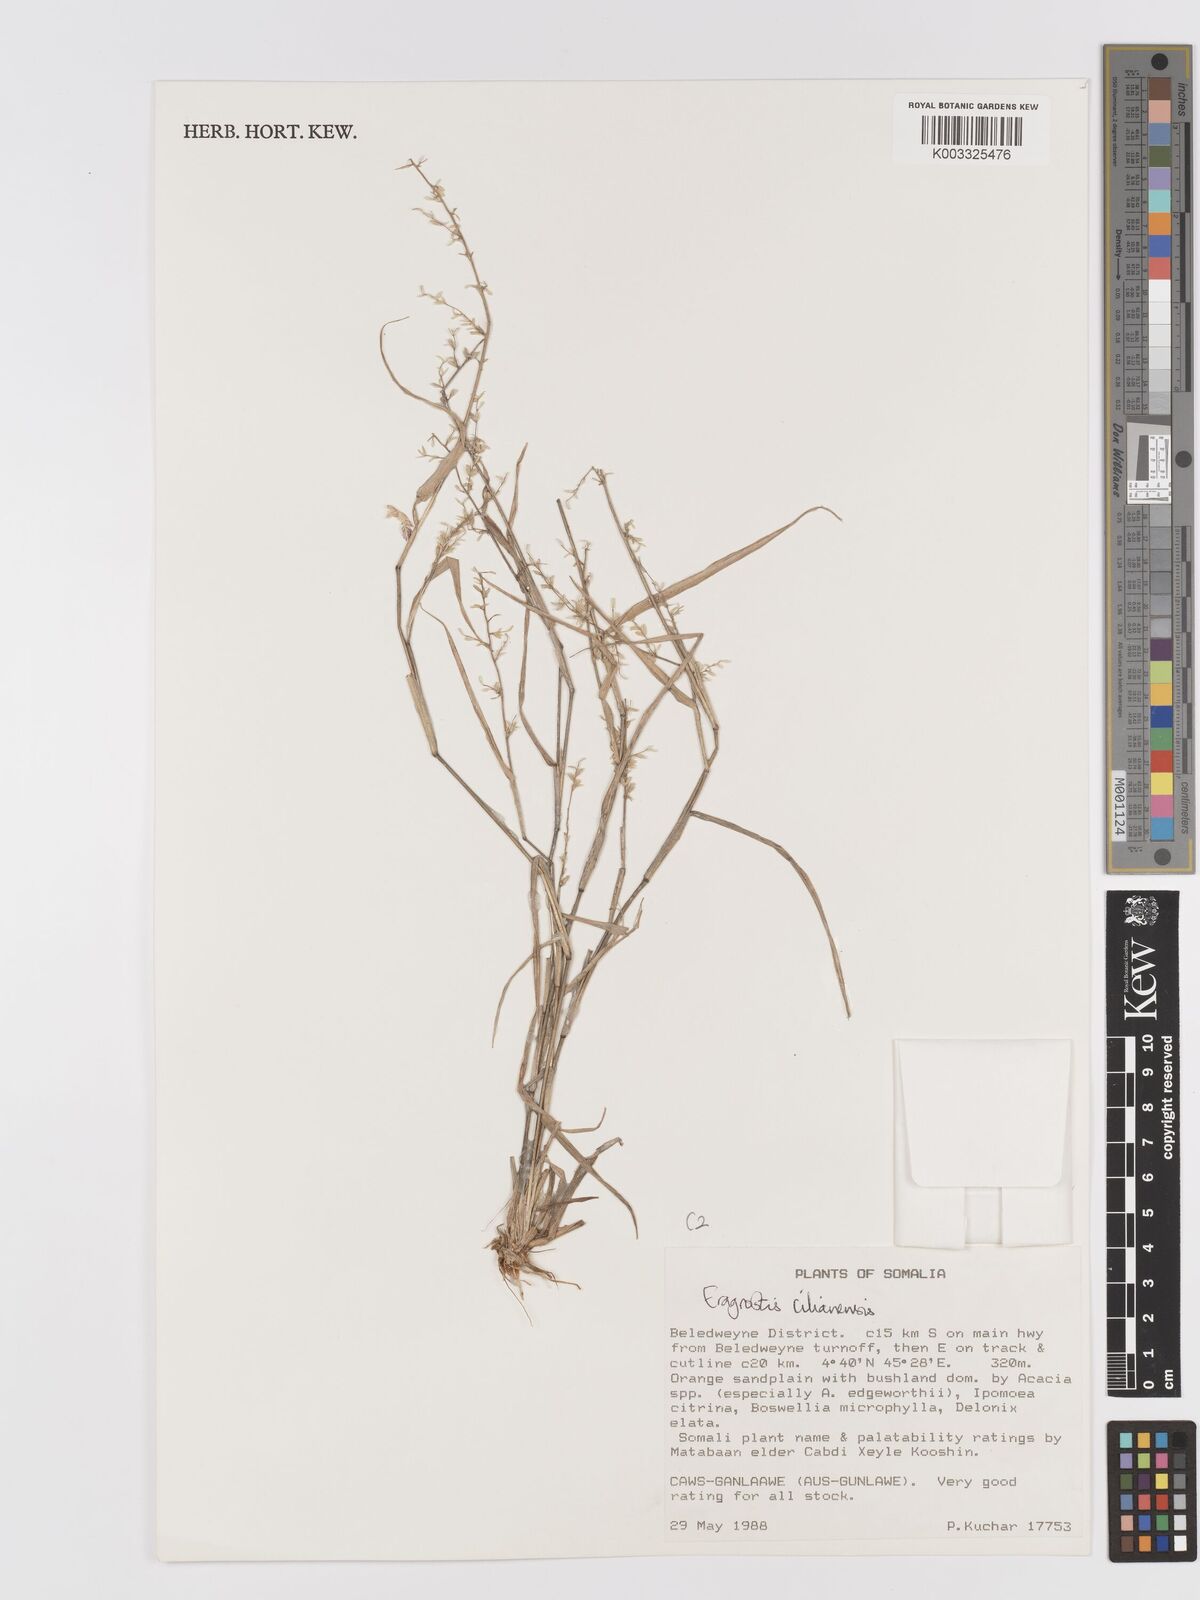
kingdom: Plantae
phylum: Tracheophyta
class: Liliopsida
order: Poales
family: Poaceae
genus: Eragrostis
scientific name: Eragrostis cilianensis
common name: Stinkgrass
